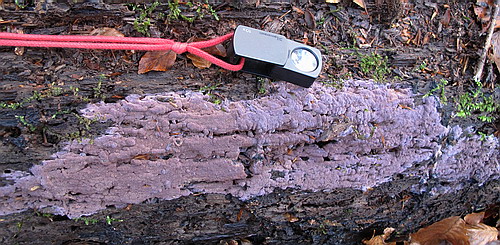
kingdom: Fungi
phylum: Basidiomycota
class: Agaricomycetes
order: Polyporales
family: Irpicaceae
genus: Ceriporia
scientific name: Ceriporia excelsa
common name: lilla voksporesvamp
